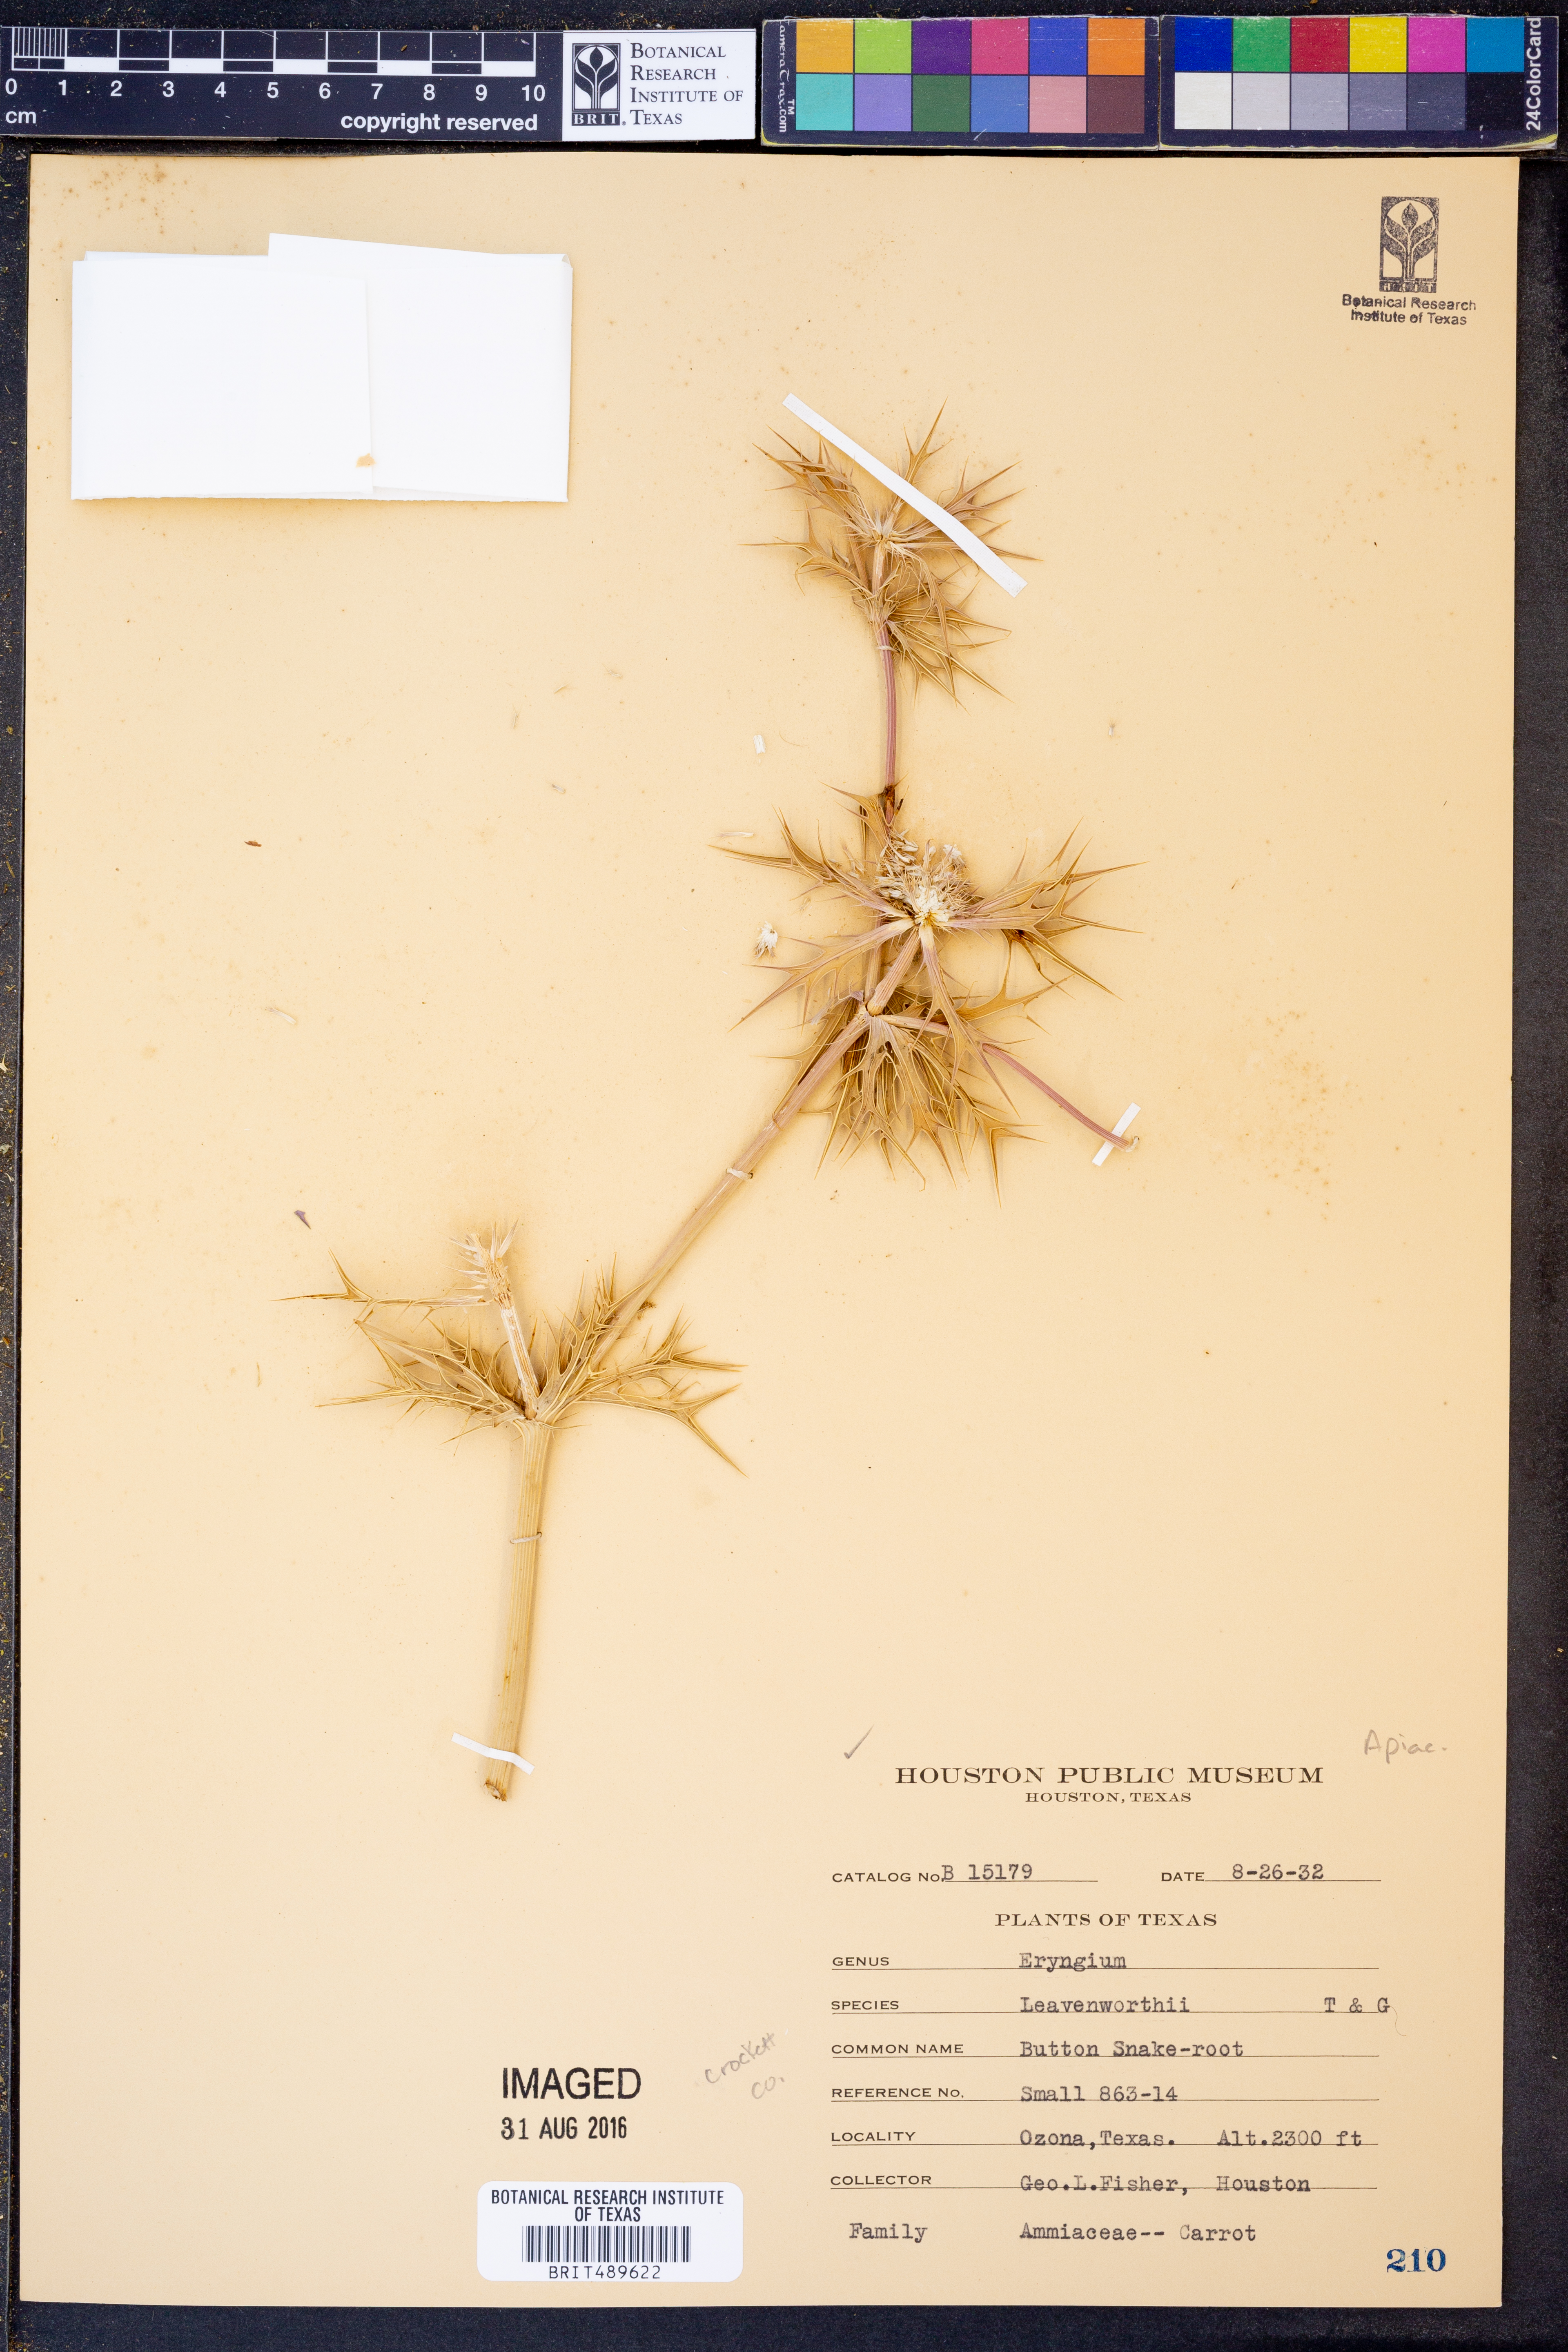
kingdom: Plantae
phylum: Tracheophyta
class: Magnoliopsida
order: Apiales
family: Apiaceae
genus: Eryngium
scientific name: Eryngium leavenworthii
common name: Leavenworth's eryngo
